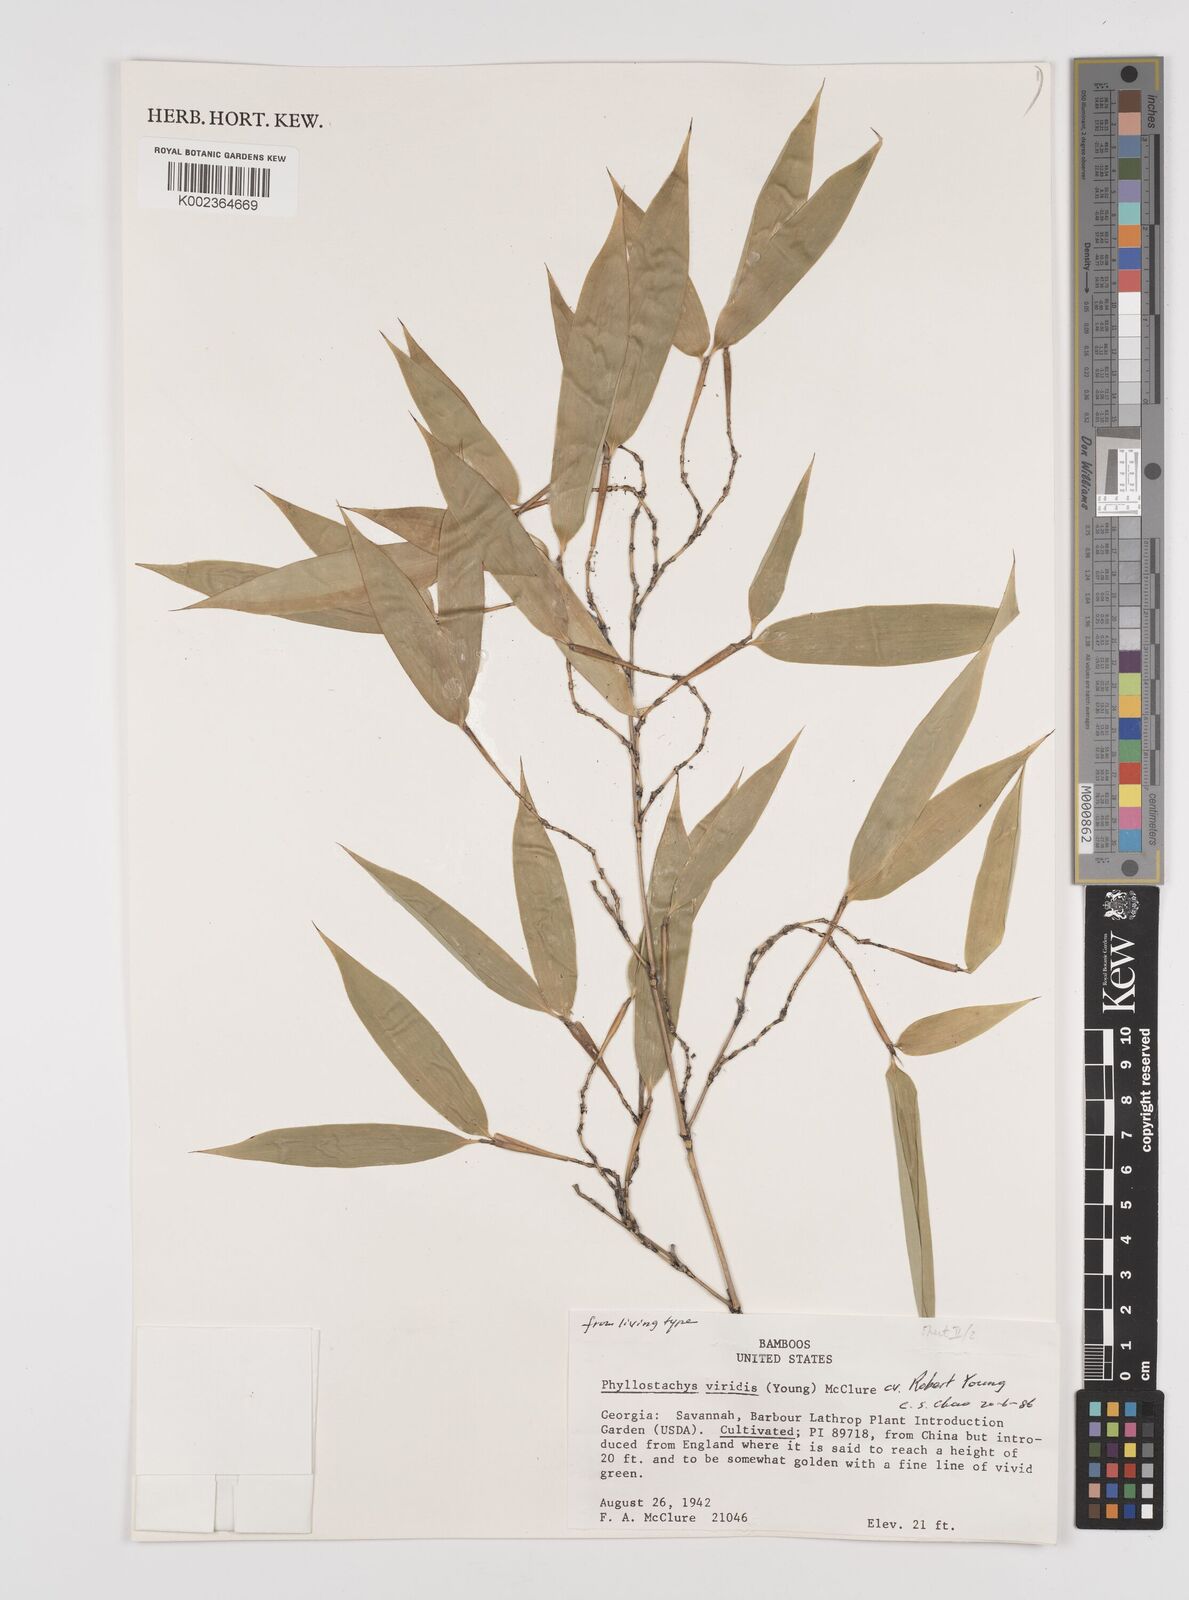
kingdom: Plantae
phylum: Tracheophyta
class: Liliopsida
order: Poales
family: Poaceae
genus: Phyllostachys
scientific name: Phyllostachys sulphurea
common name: Sulphur bamboo
